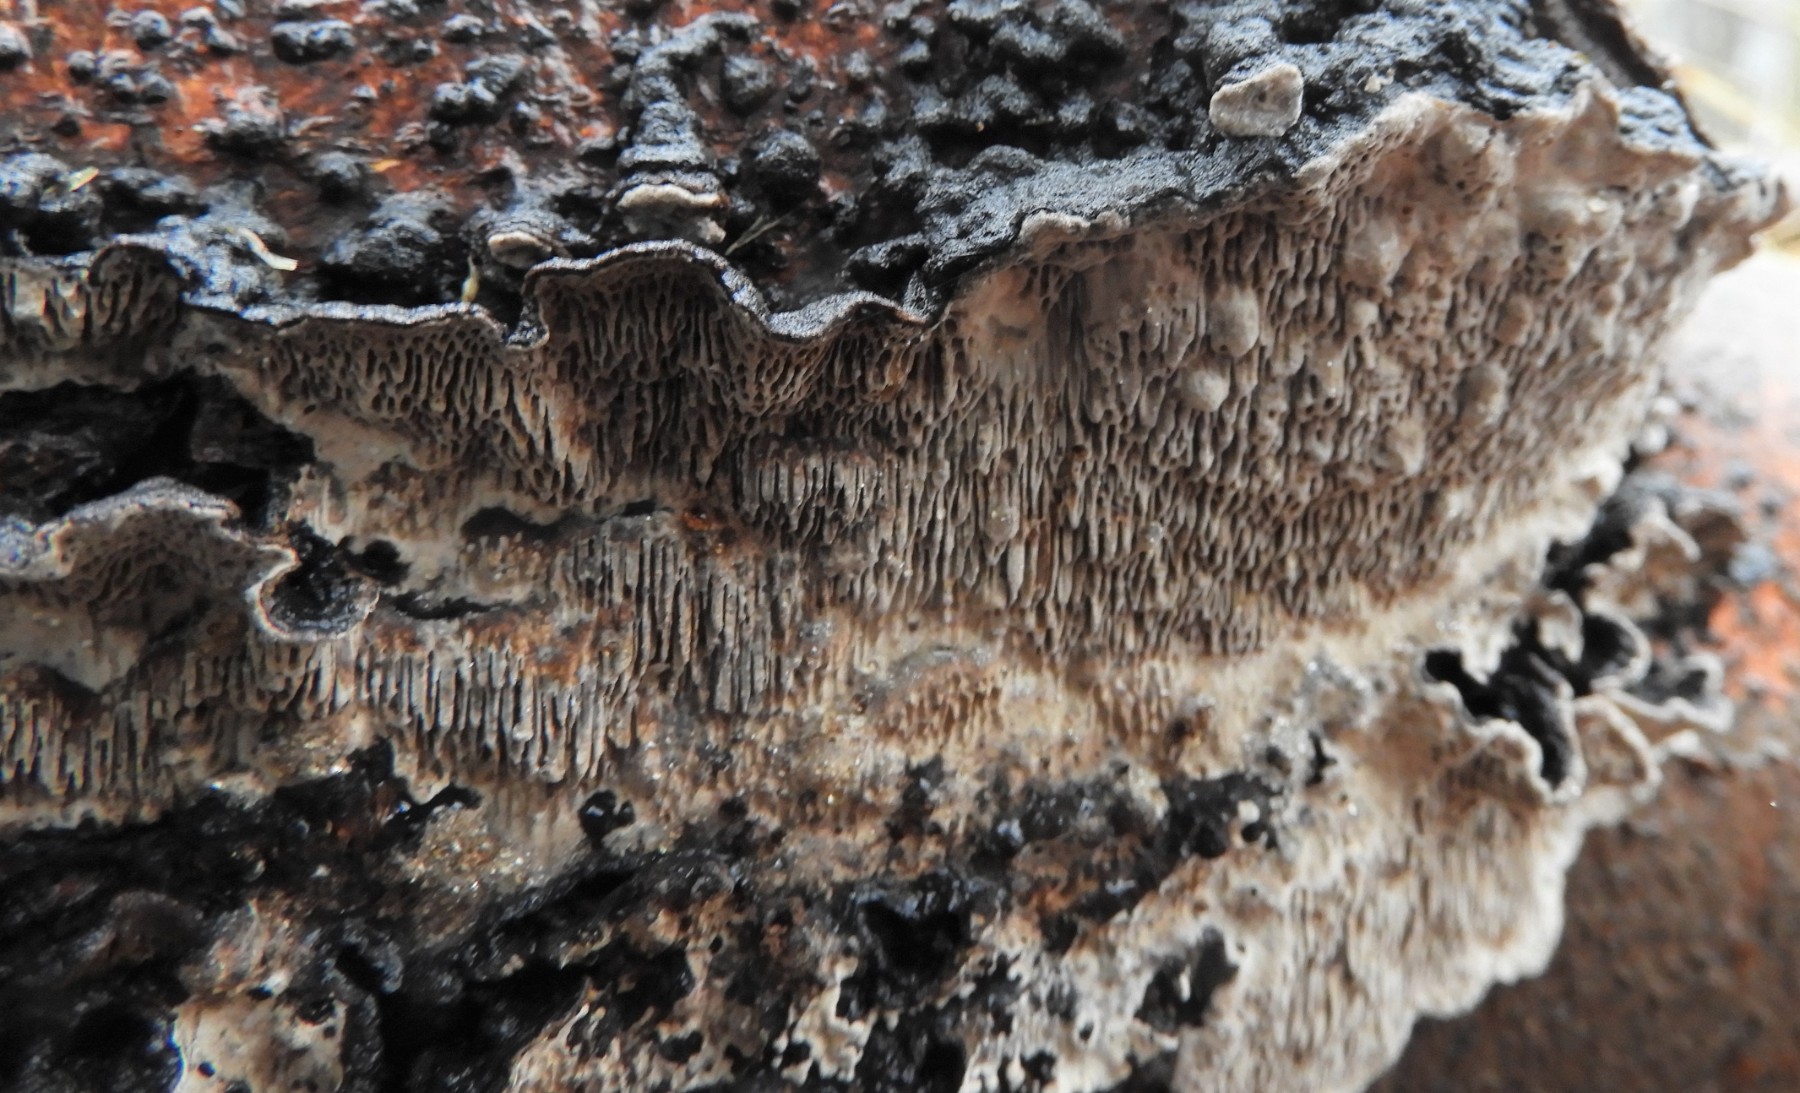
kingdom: Fungi
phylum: Basidiomycota
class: Agaricomycetes
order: Polyporales
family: Polyporaceae
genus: Podofomes
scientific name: Podofomes mollis
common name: blød begporesvamp
